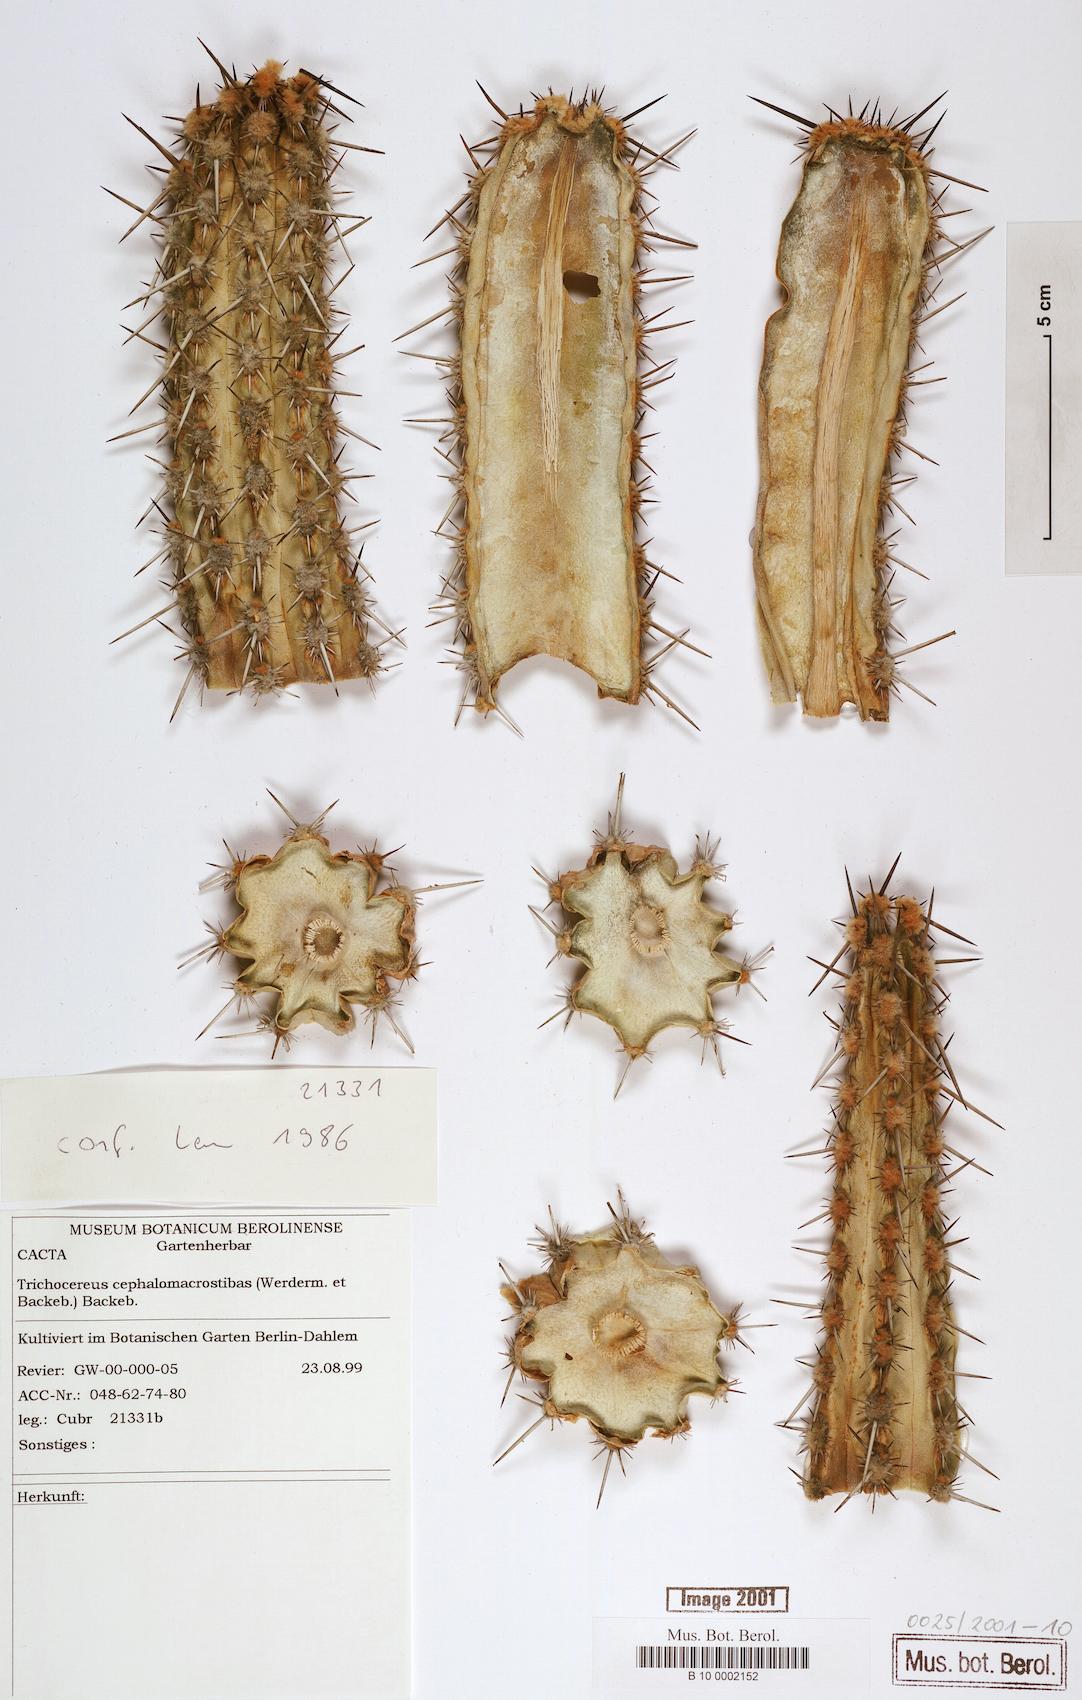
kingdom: Plantae
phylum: Tracheophyta
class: Magnoliopsida
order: Caryophyllales
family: Cactaceae
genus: Weberbauerocereus
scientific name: Weberbauerocereus cephalomacrostibas
